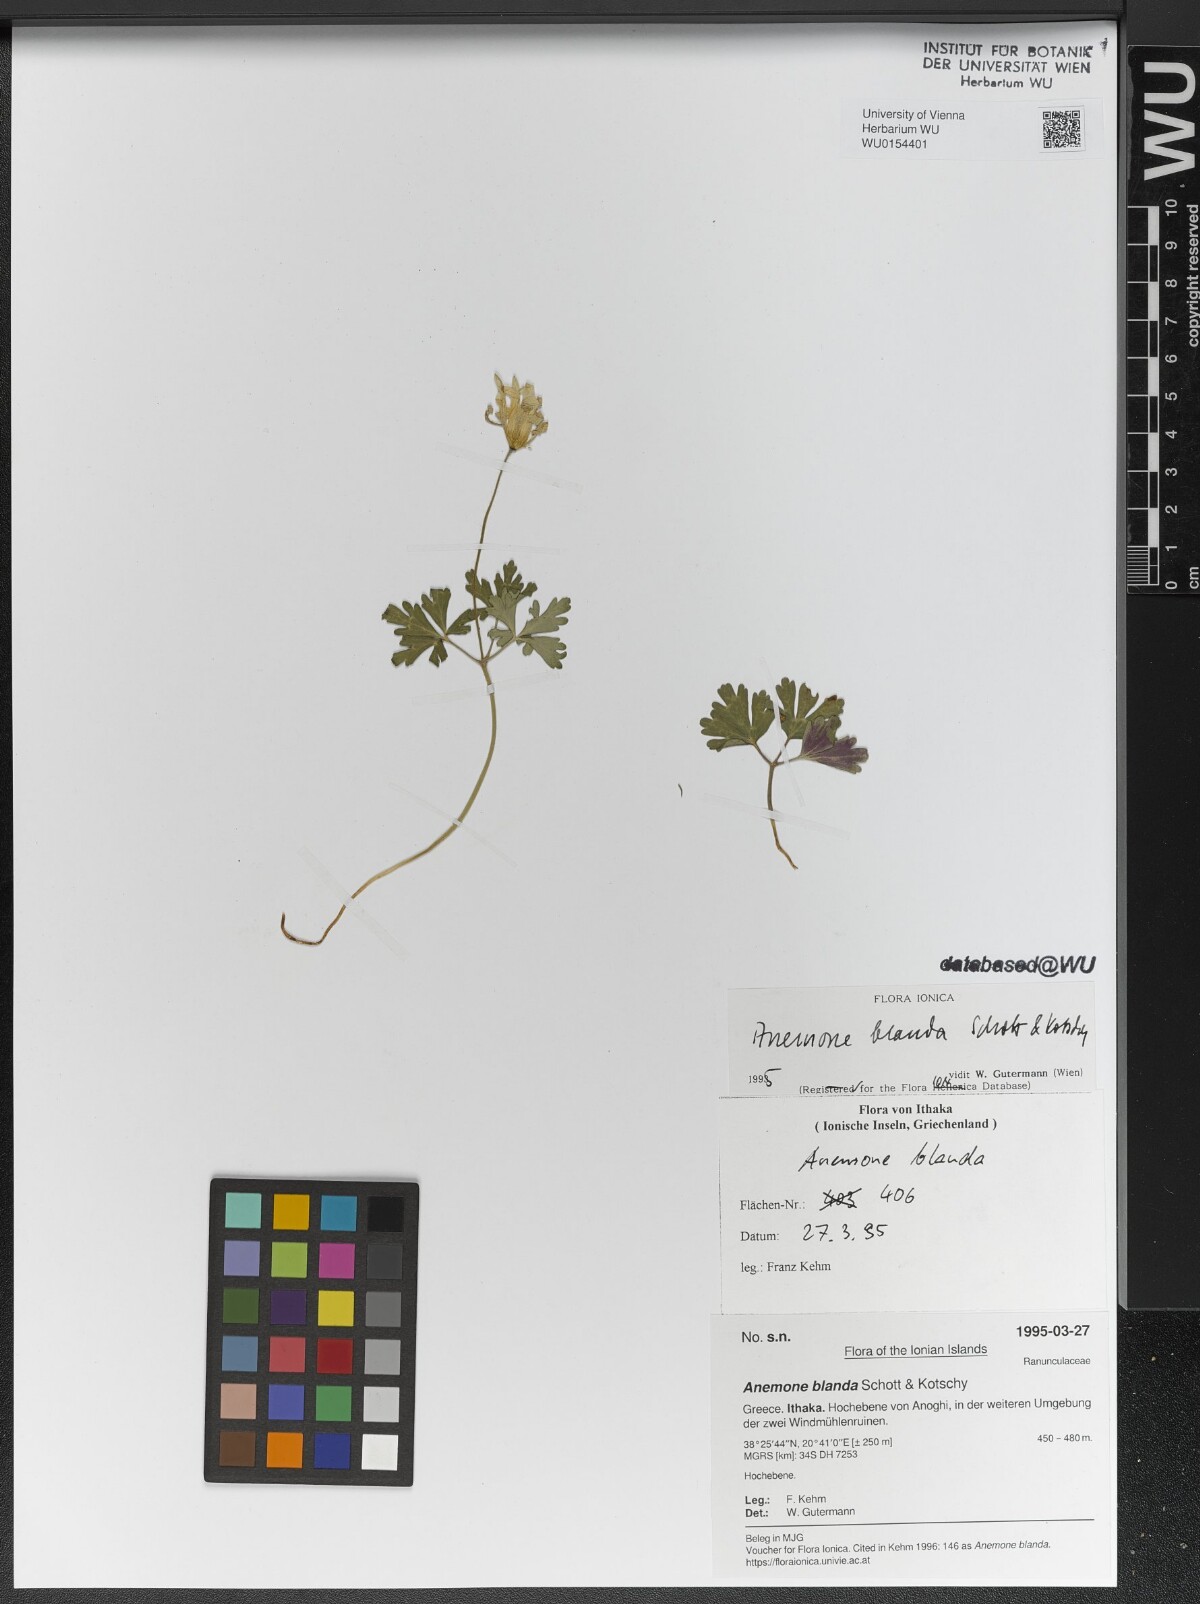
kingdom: Plantae
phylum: Tracheophyta
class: Magnoliopsida
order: Ranunculales
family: Ranunculaceae
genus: Anemone
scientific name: Anemone blanda
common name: Balkan anemone
